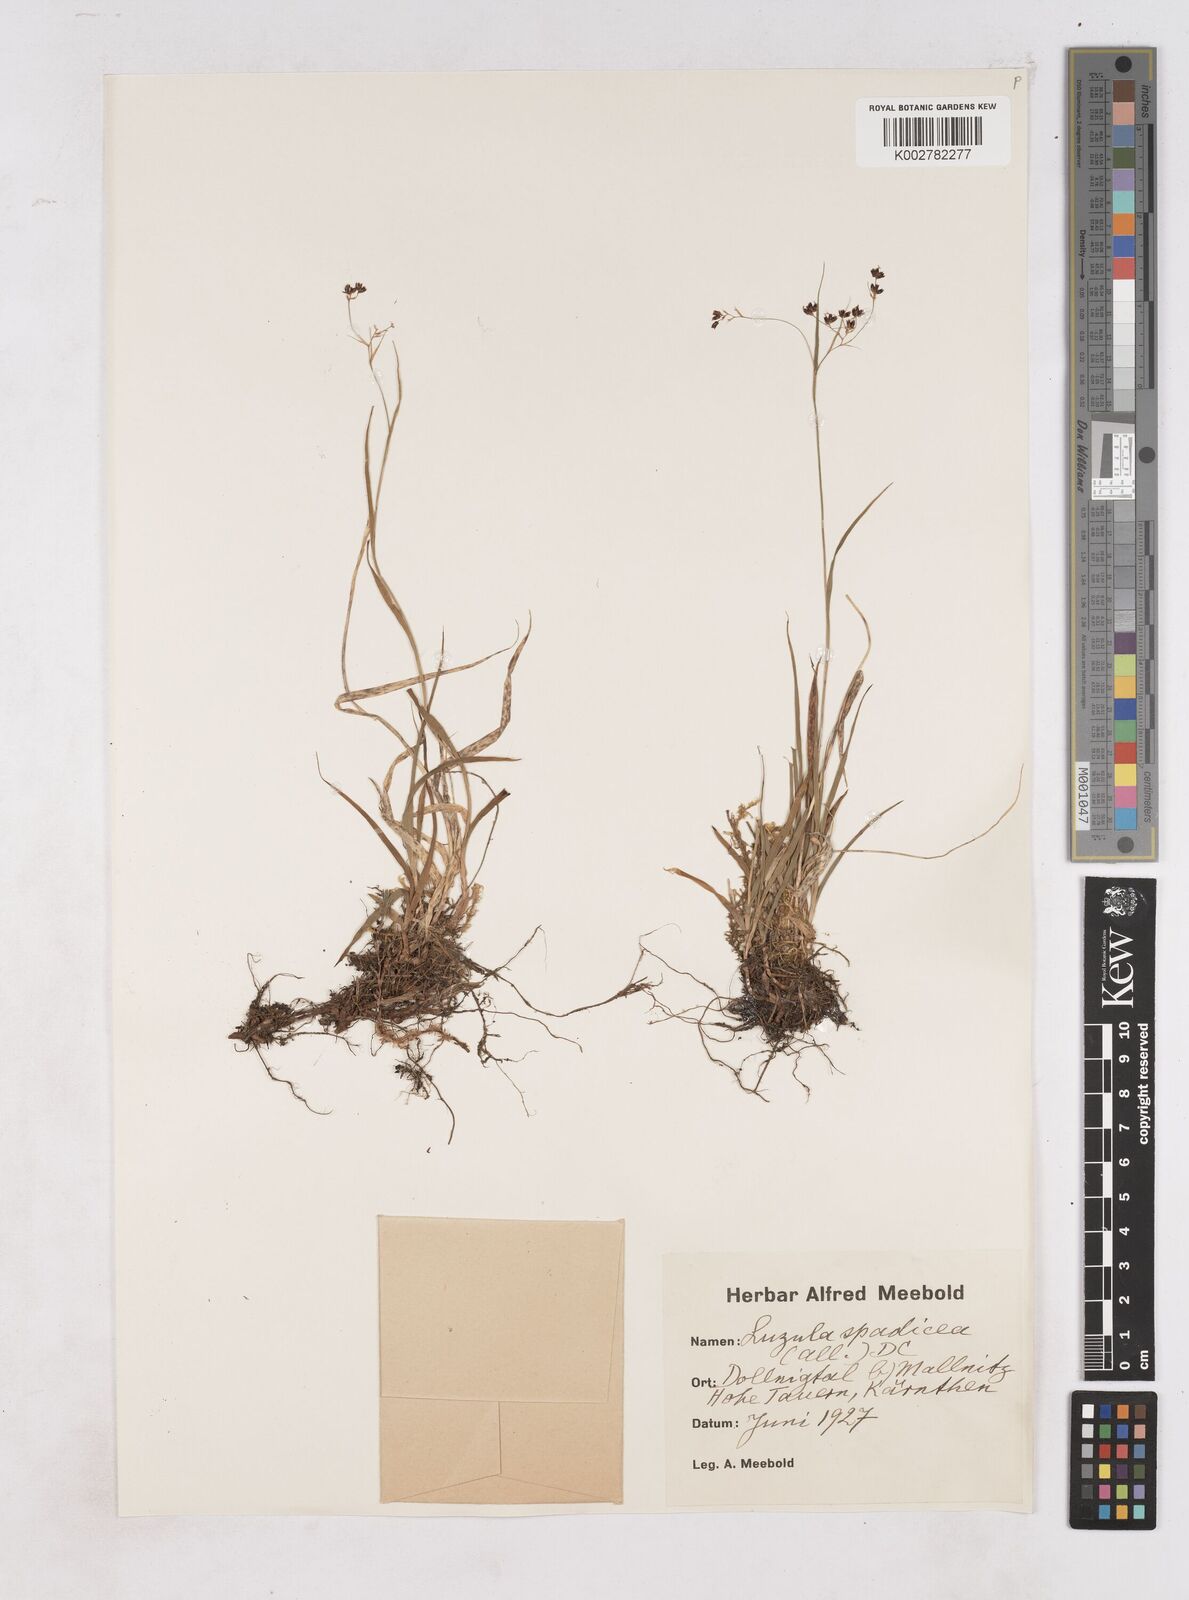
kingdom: Plantae
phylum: Tracheophyta
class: Liliopsida
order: Poales
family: Juncaceae
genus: Luzula
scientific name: Luzula alpinopilosa
